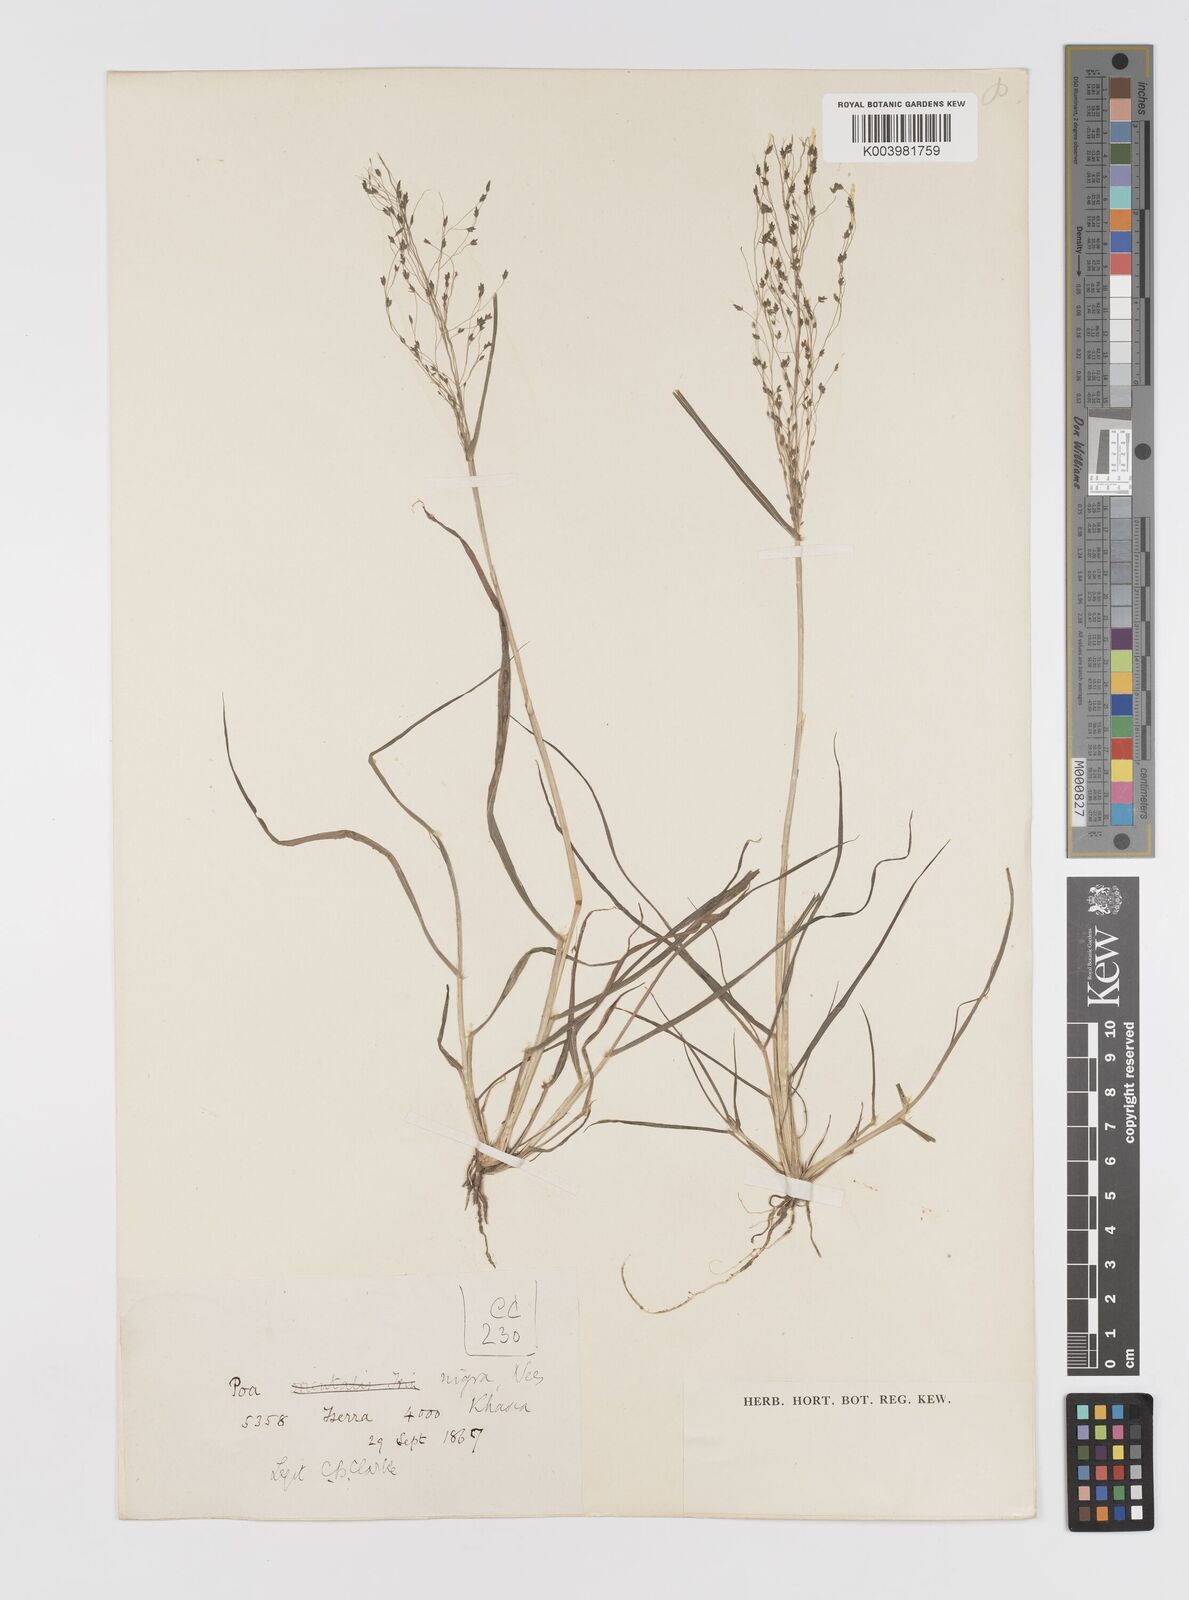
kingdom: Plantae
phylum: Tracheophyta
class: Liliopsida
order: Poales
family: Poaceae
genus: Eragrostis
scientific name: Eragrostis nigra
